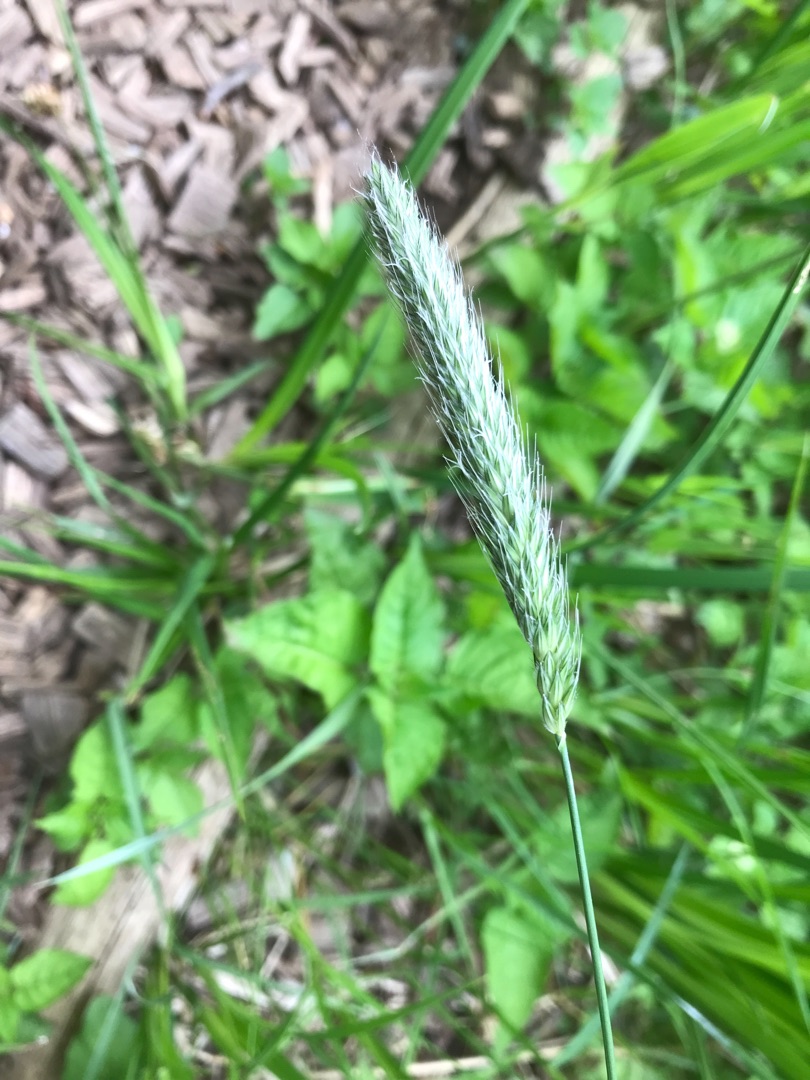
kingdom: Plantae
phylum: Tracheophyta
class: Liliopsida
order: Poales
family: Poaceae
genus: Alopecurus
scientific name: Alopecurus pratensis
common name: Eng-rævehale
